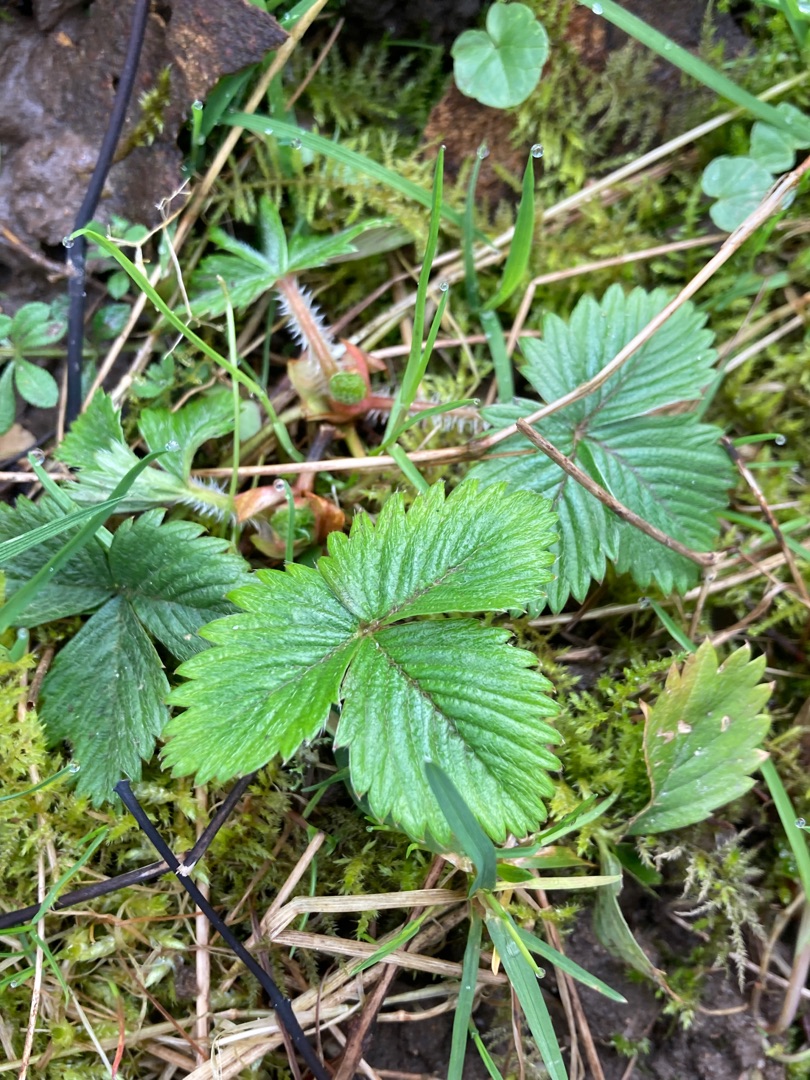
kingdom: Plantae
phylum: Tracheophyta
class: Magnoliopsida
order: Rosales
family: Rosaceae
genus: Fragaria
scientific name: Fragaria vesca
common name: Skov-jordbær
